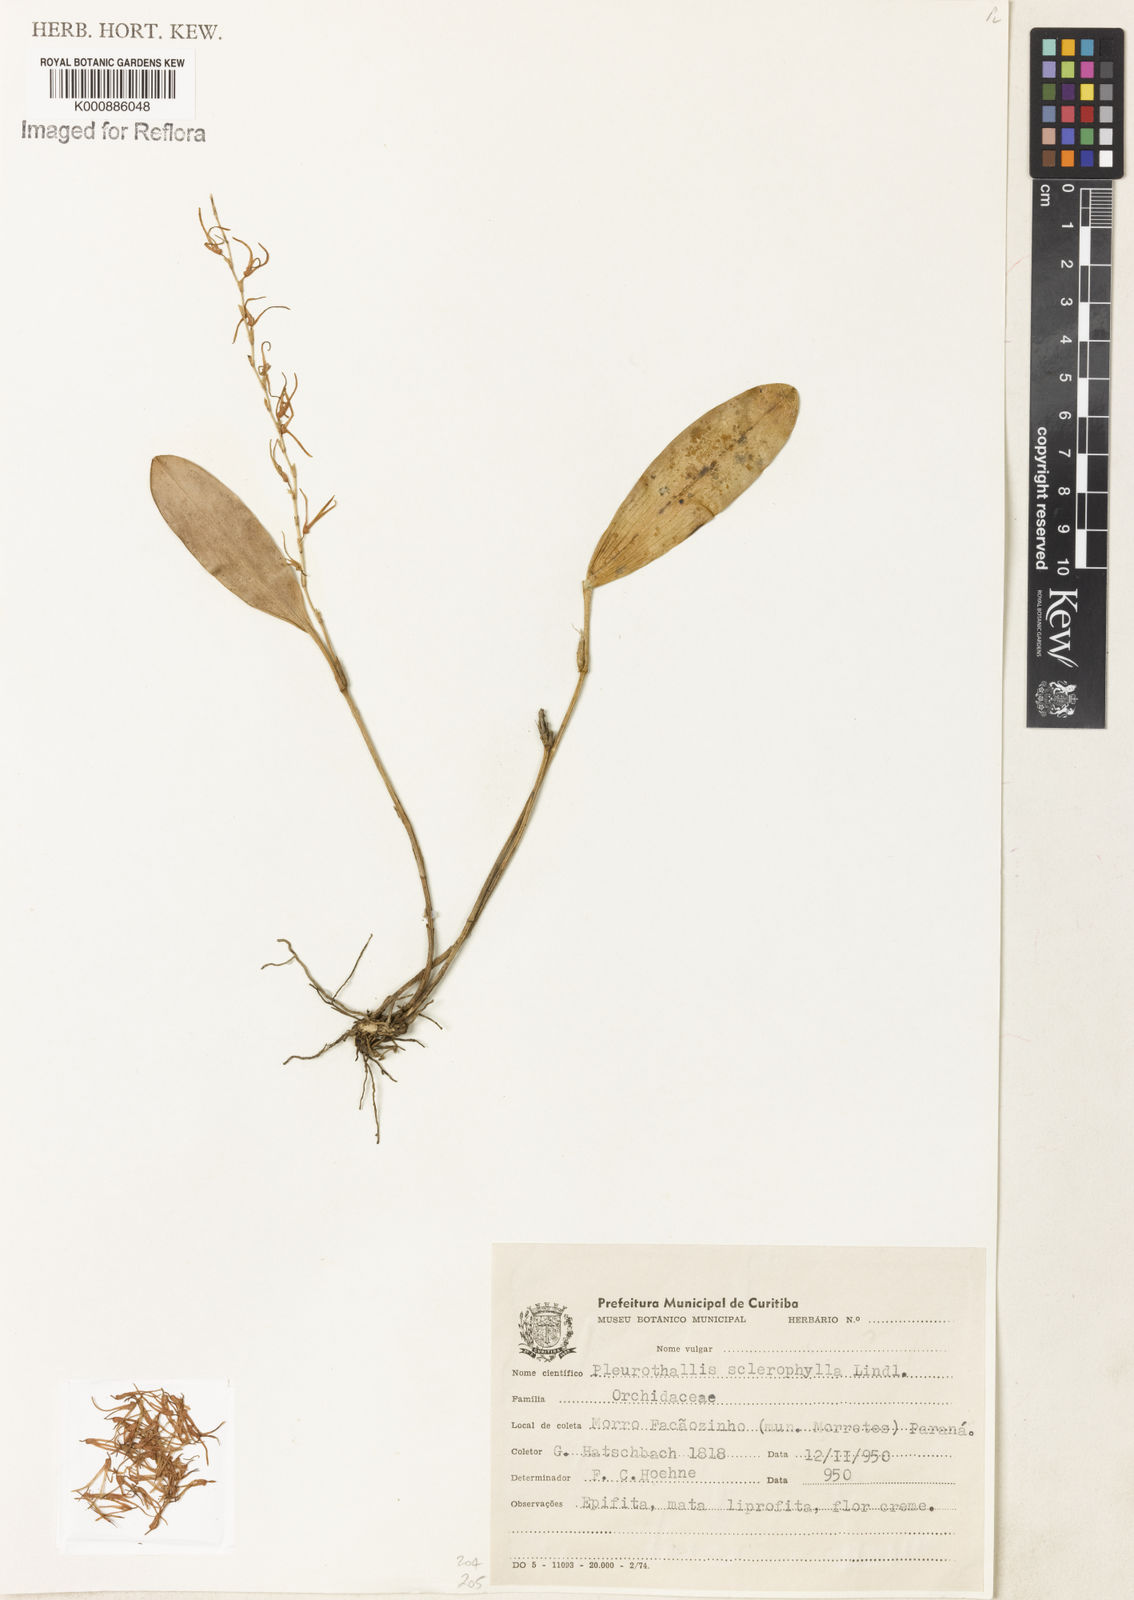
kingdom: Plantae
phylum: Tracheophyta
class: Liliopsida
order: Asparagales
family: Orchidaceae
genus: Stelis
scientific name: Stelis sclerophylla
